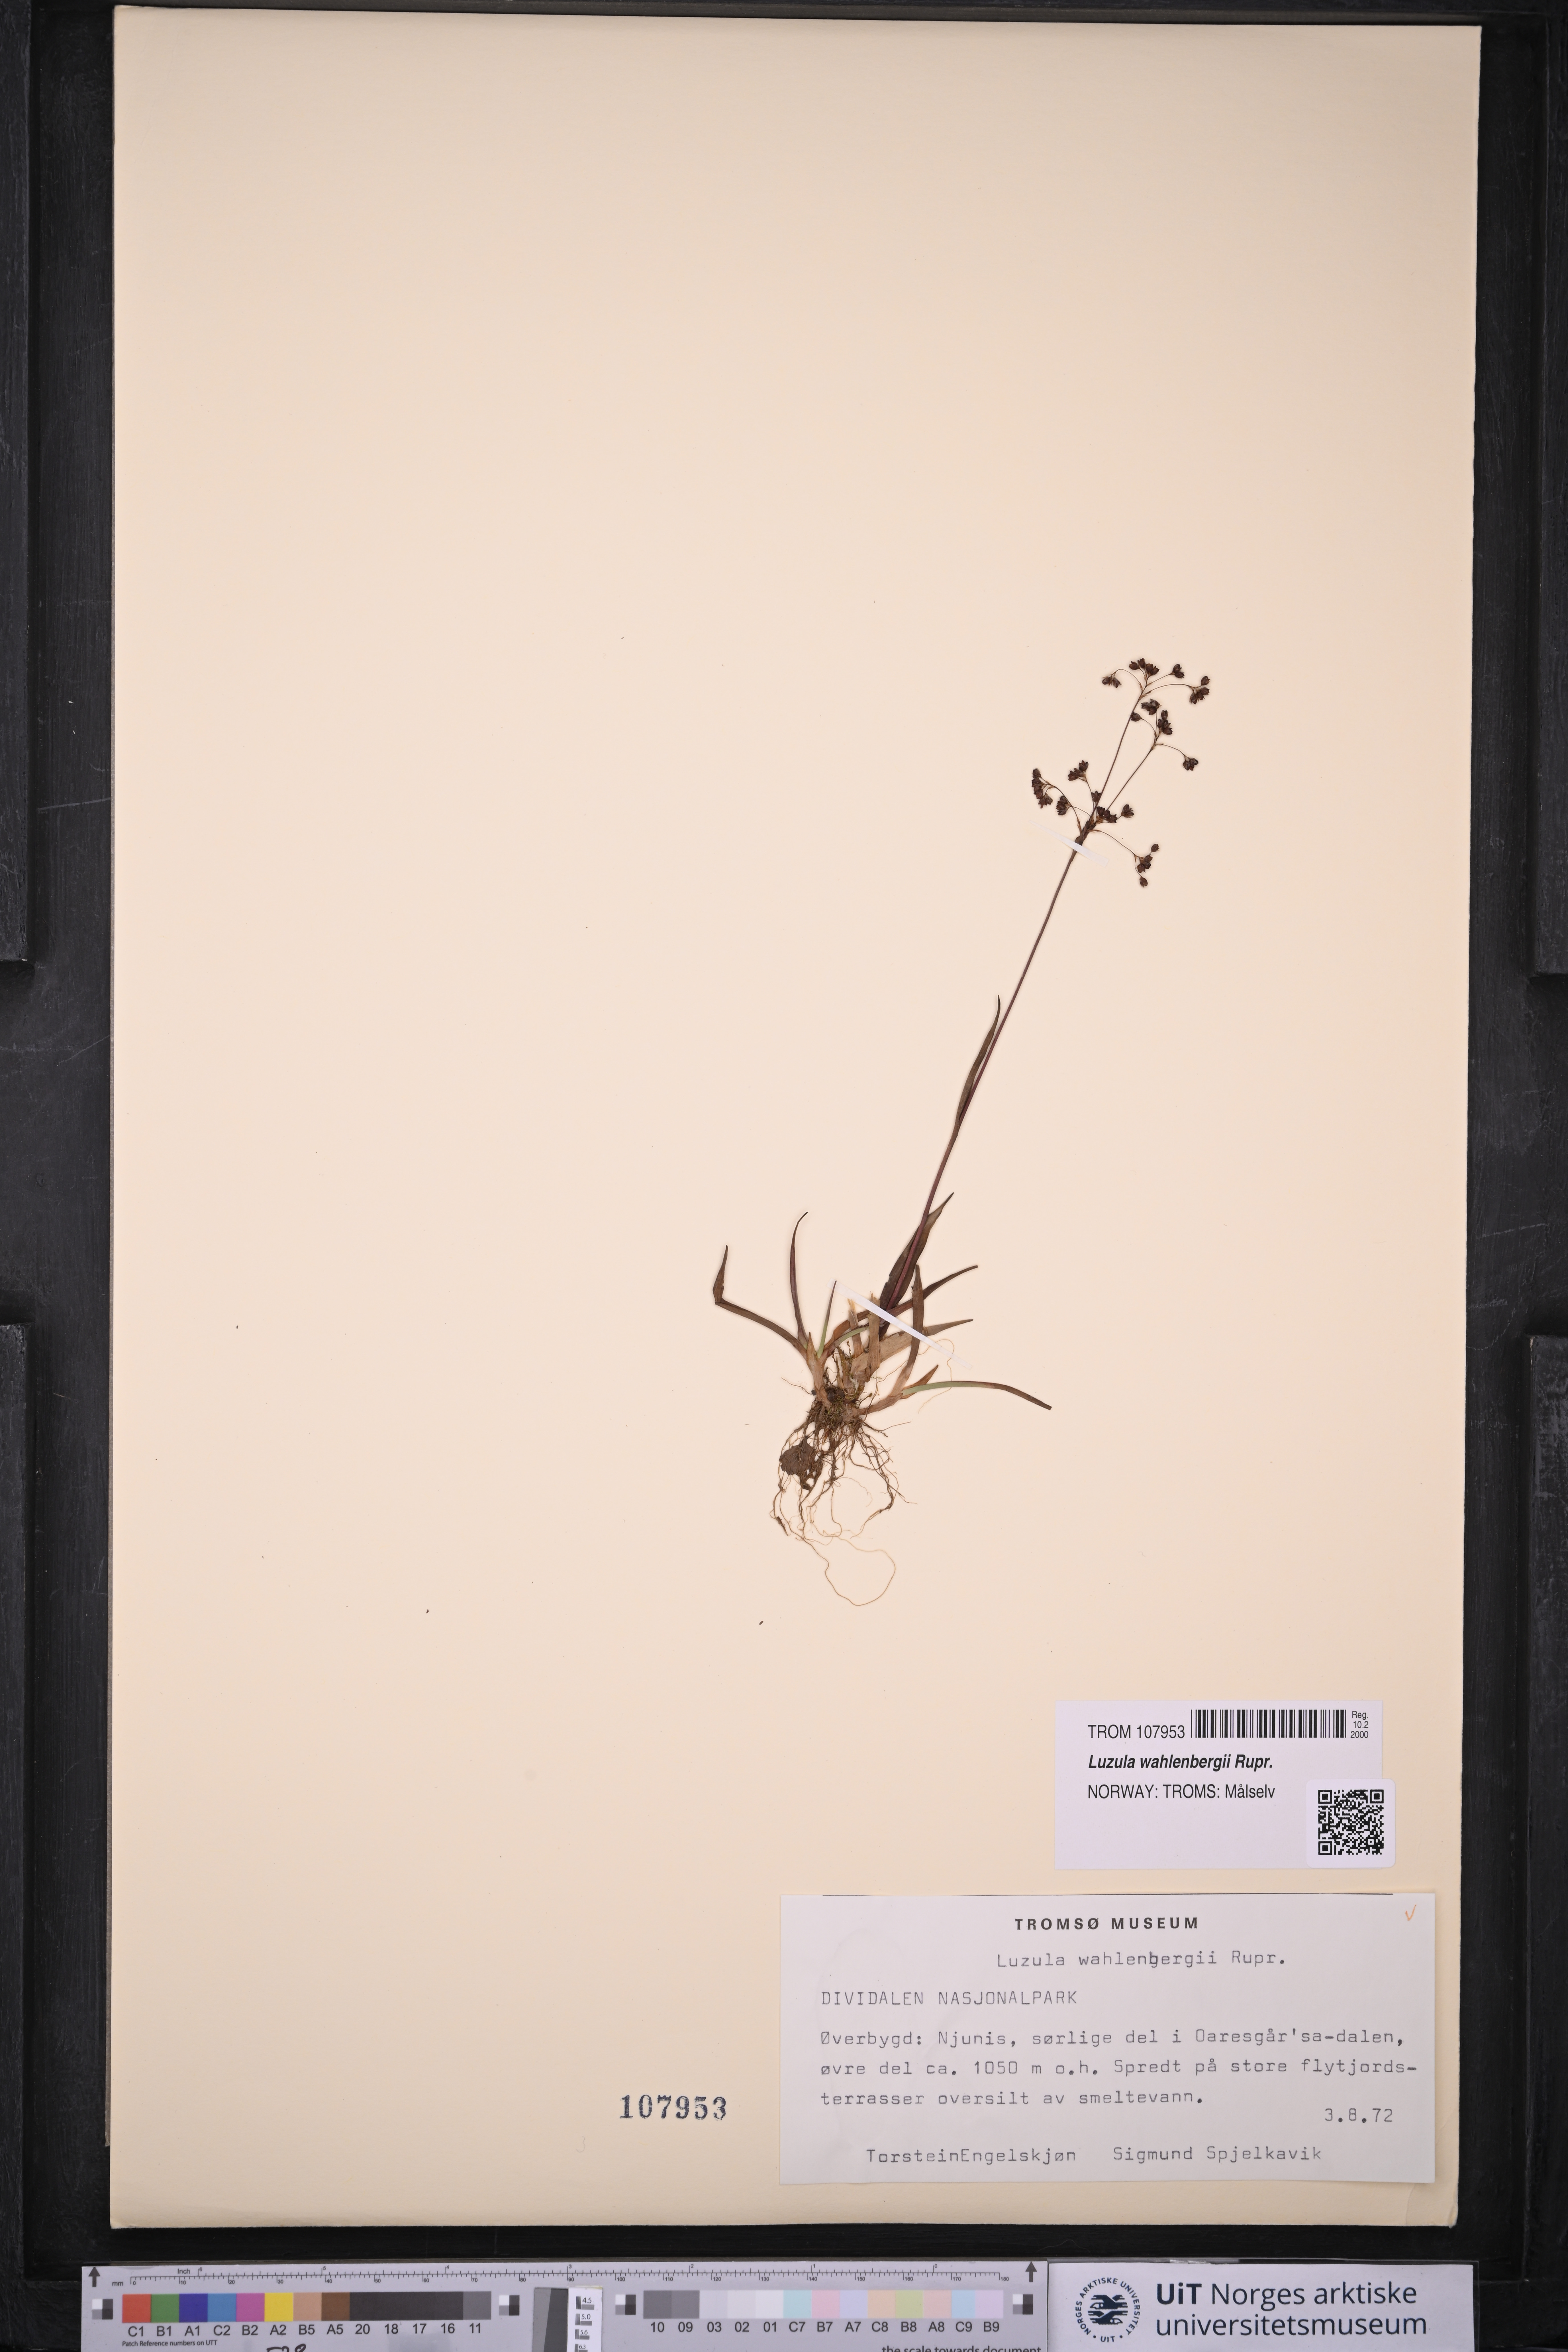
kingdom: Plantae
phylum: Tracheophyta
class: Liliopsida
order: Poales
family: Juncaceae
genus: Luzula
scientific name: Luzula wahlenbergii
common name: Wahlenberg's wood-rush
